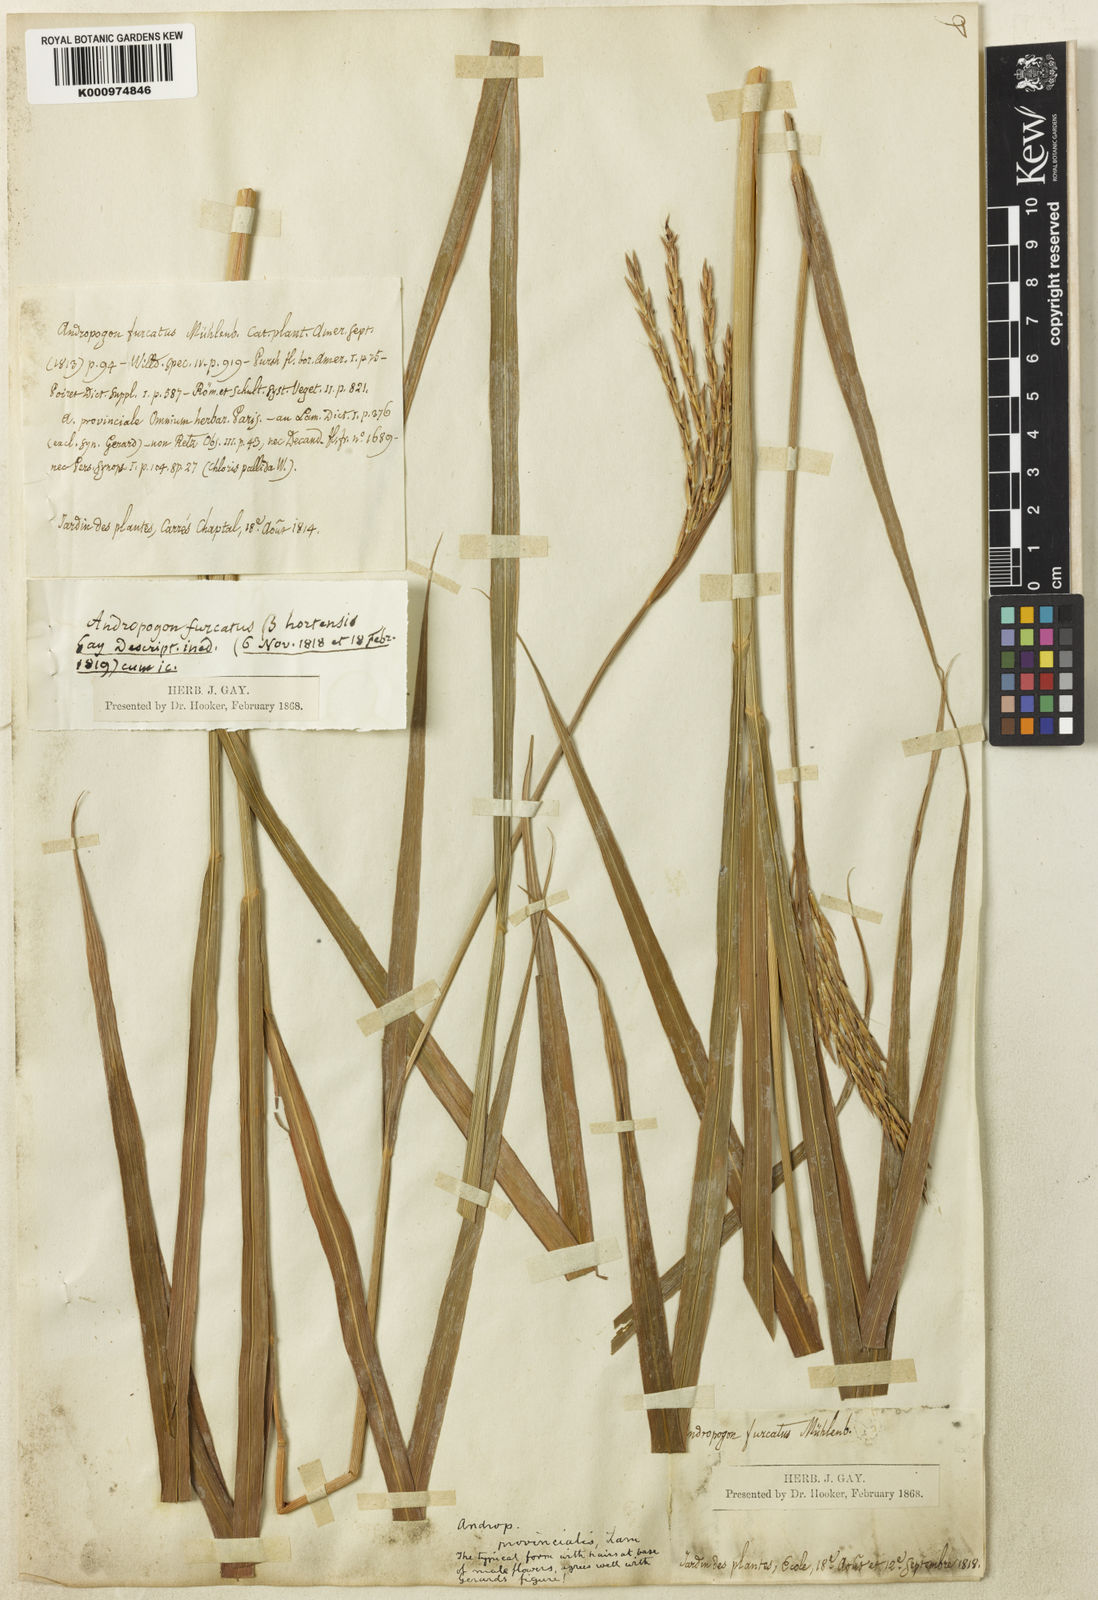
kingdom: Plantae
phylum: Tracheophyta
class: Liliopsida
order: Poales
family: Poaceae
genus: Andropogon
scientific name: Andropogon gerardi
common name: Big bluestem
